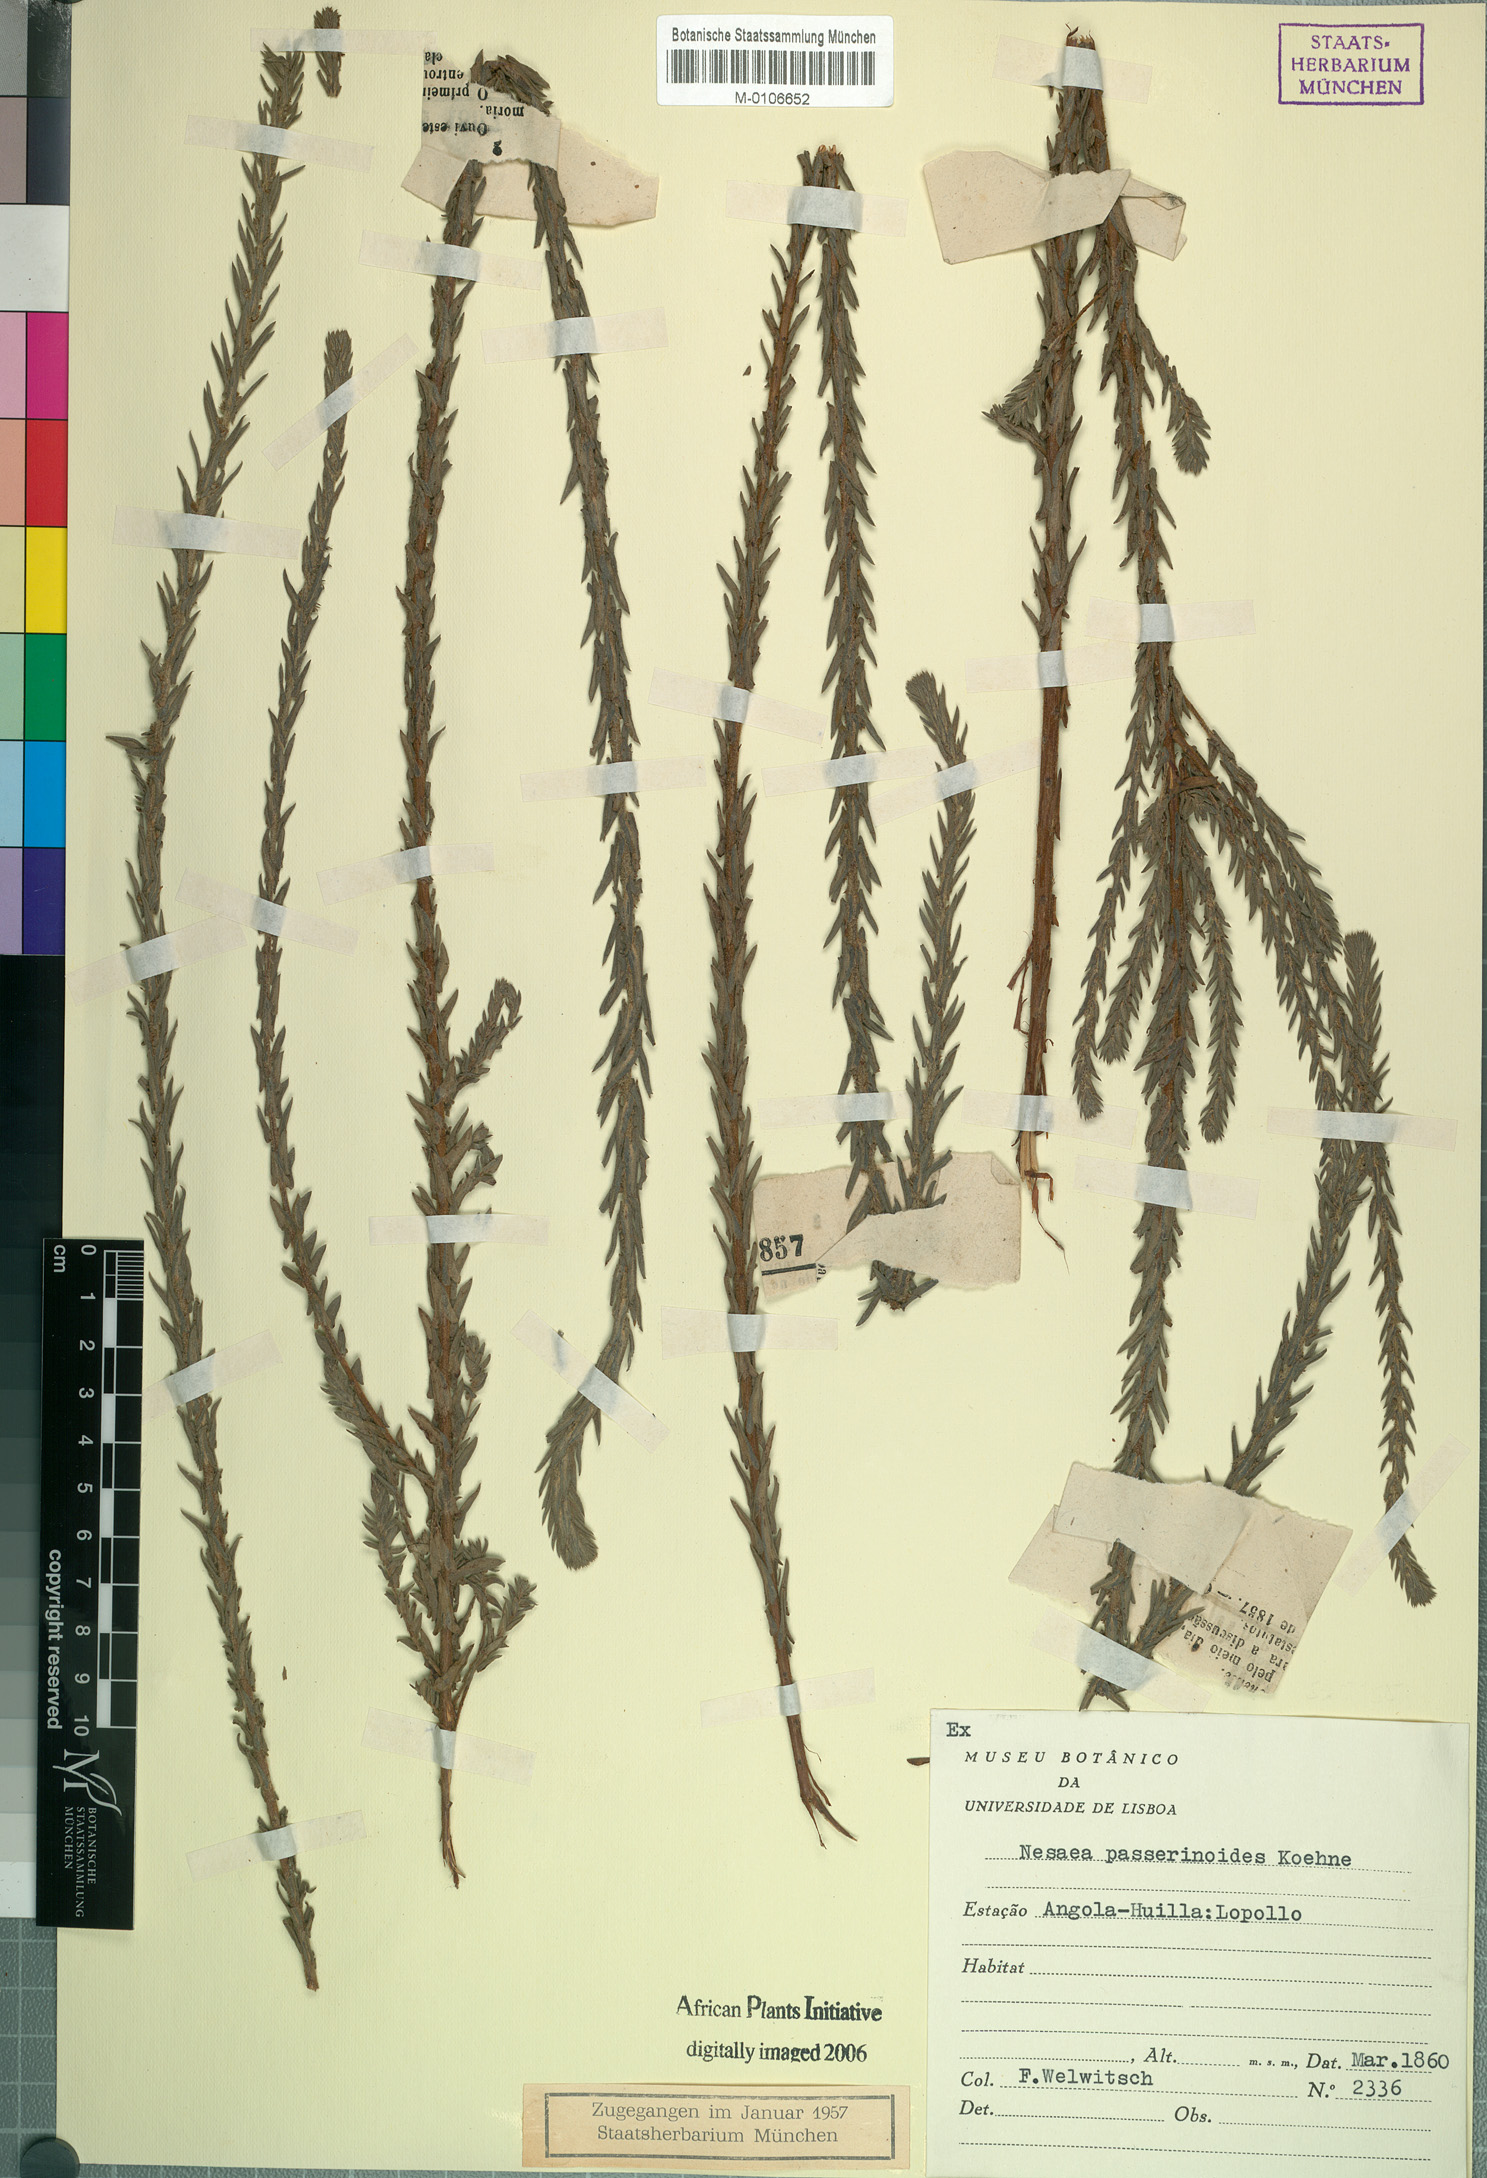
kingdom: Plantae
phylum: Tracheophyta
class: Magnoliopsida
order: Myrtales
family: Lythraceae
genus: Ammannia
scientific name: Ammannia passerinoides
